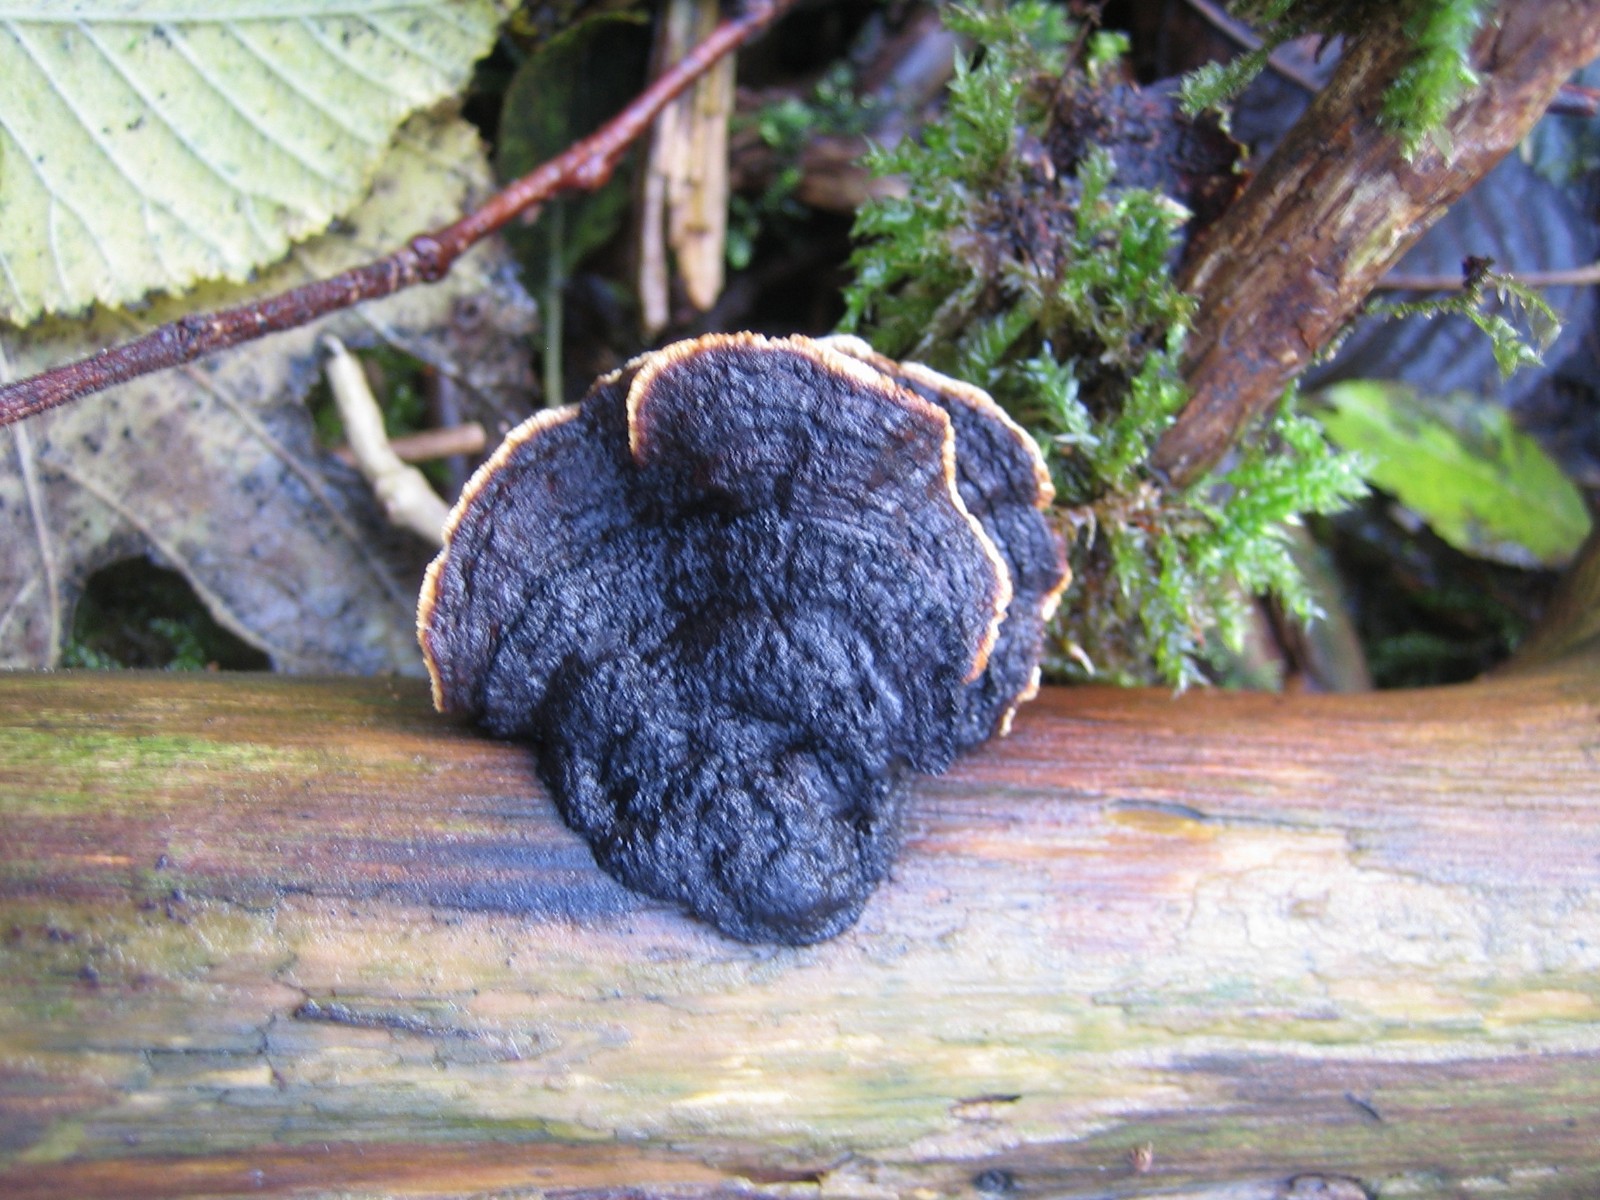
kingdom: Fungi
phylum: Basidiomycota
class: Agaricomycetes
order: Gloeophyllales
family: Gloeophyllaceae
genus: Gloeophyllum
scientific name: Gloeophyllum sepiarium
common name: fyrre-korkhat
